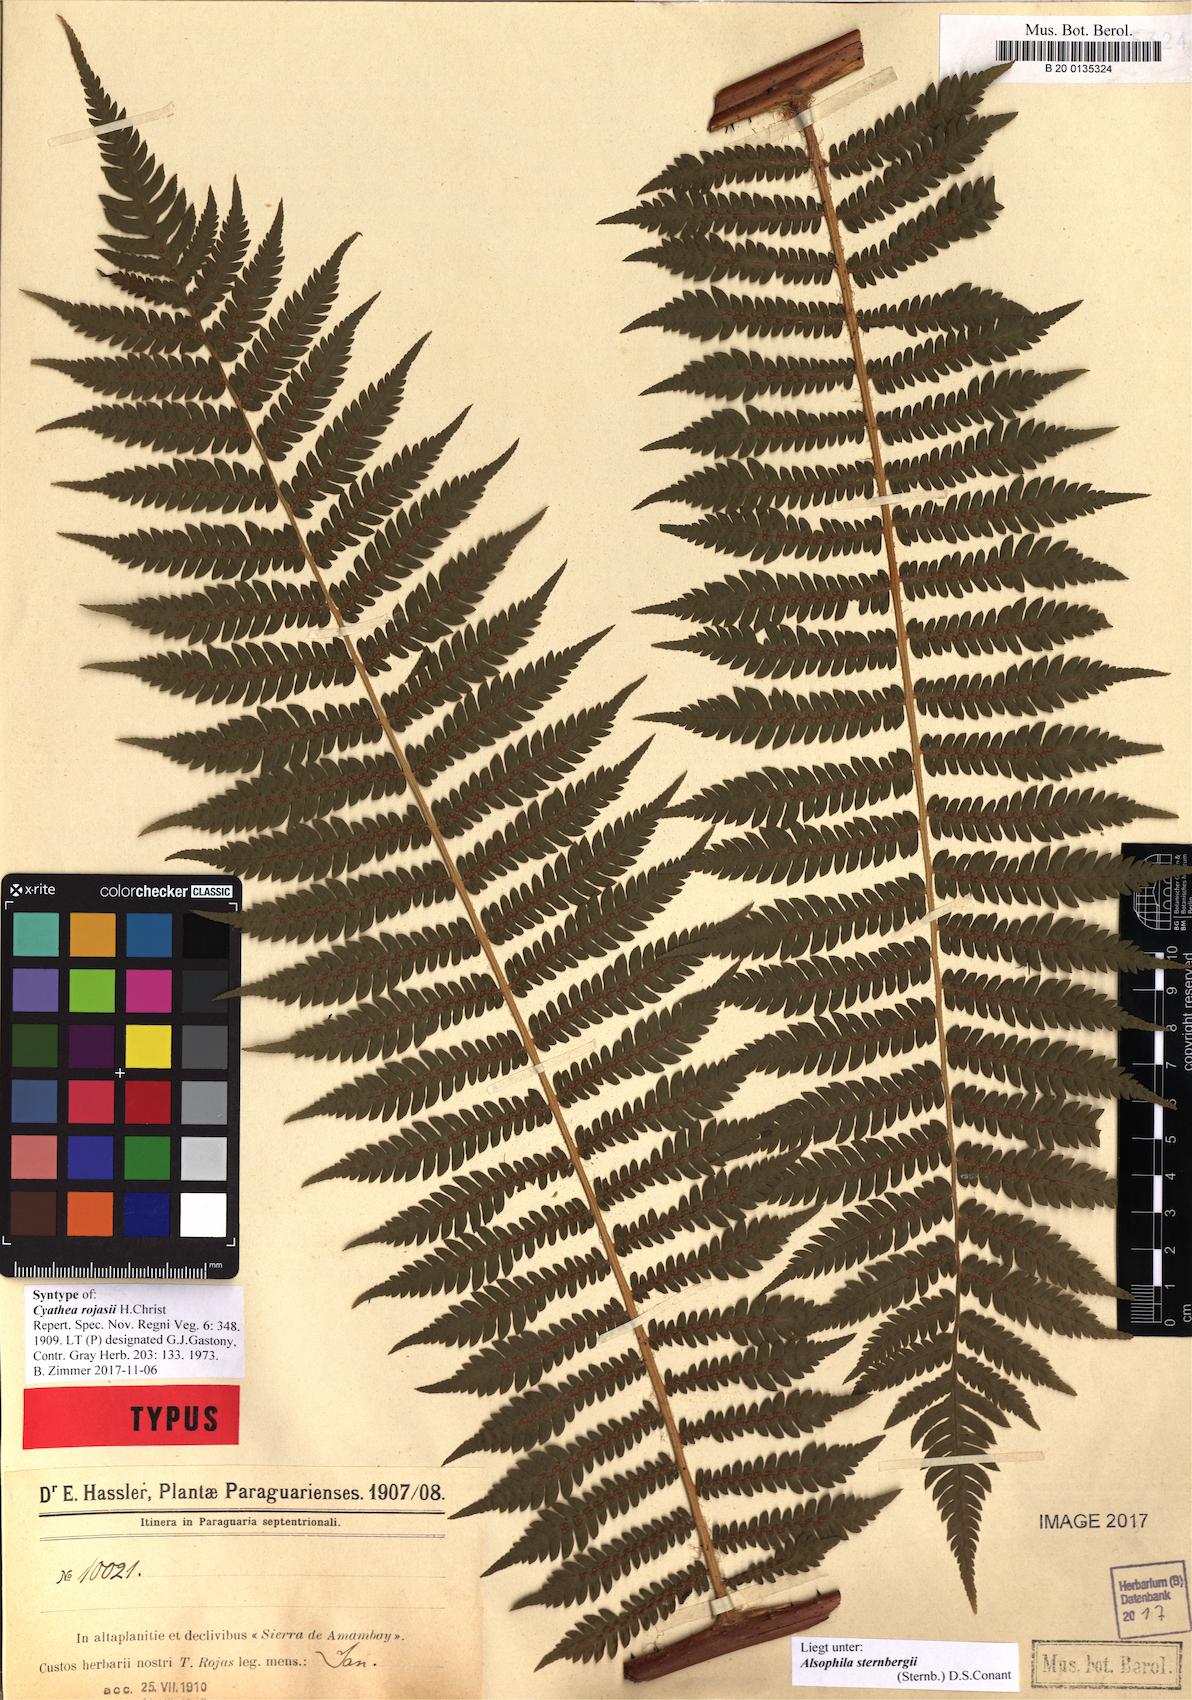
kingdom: Plantae
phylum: Tracheophyta
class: Polypodiopsida
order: Cyatheales
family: Cyatheaceae
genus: Alsophila
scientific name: Alsophila sternbergii
